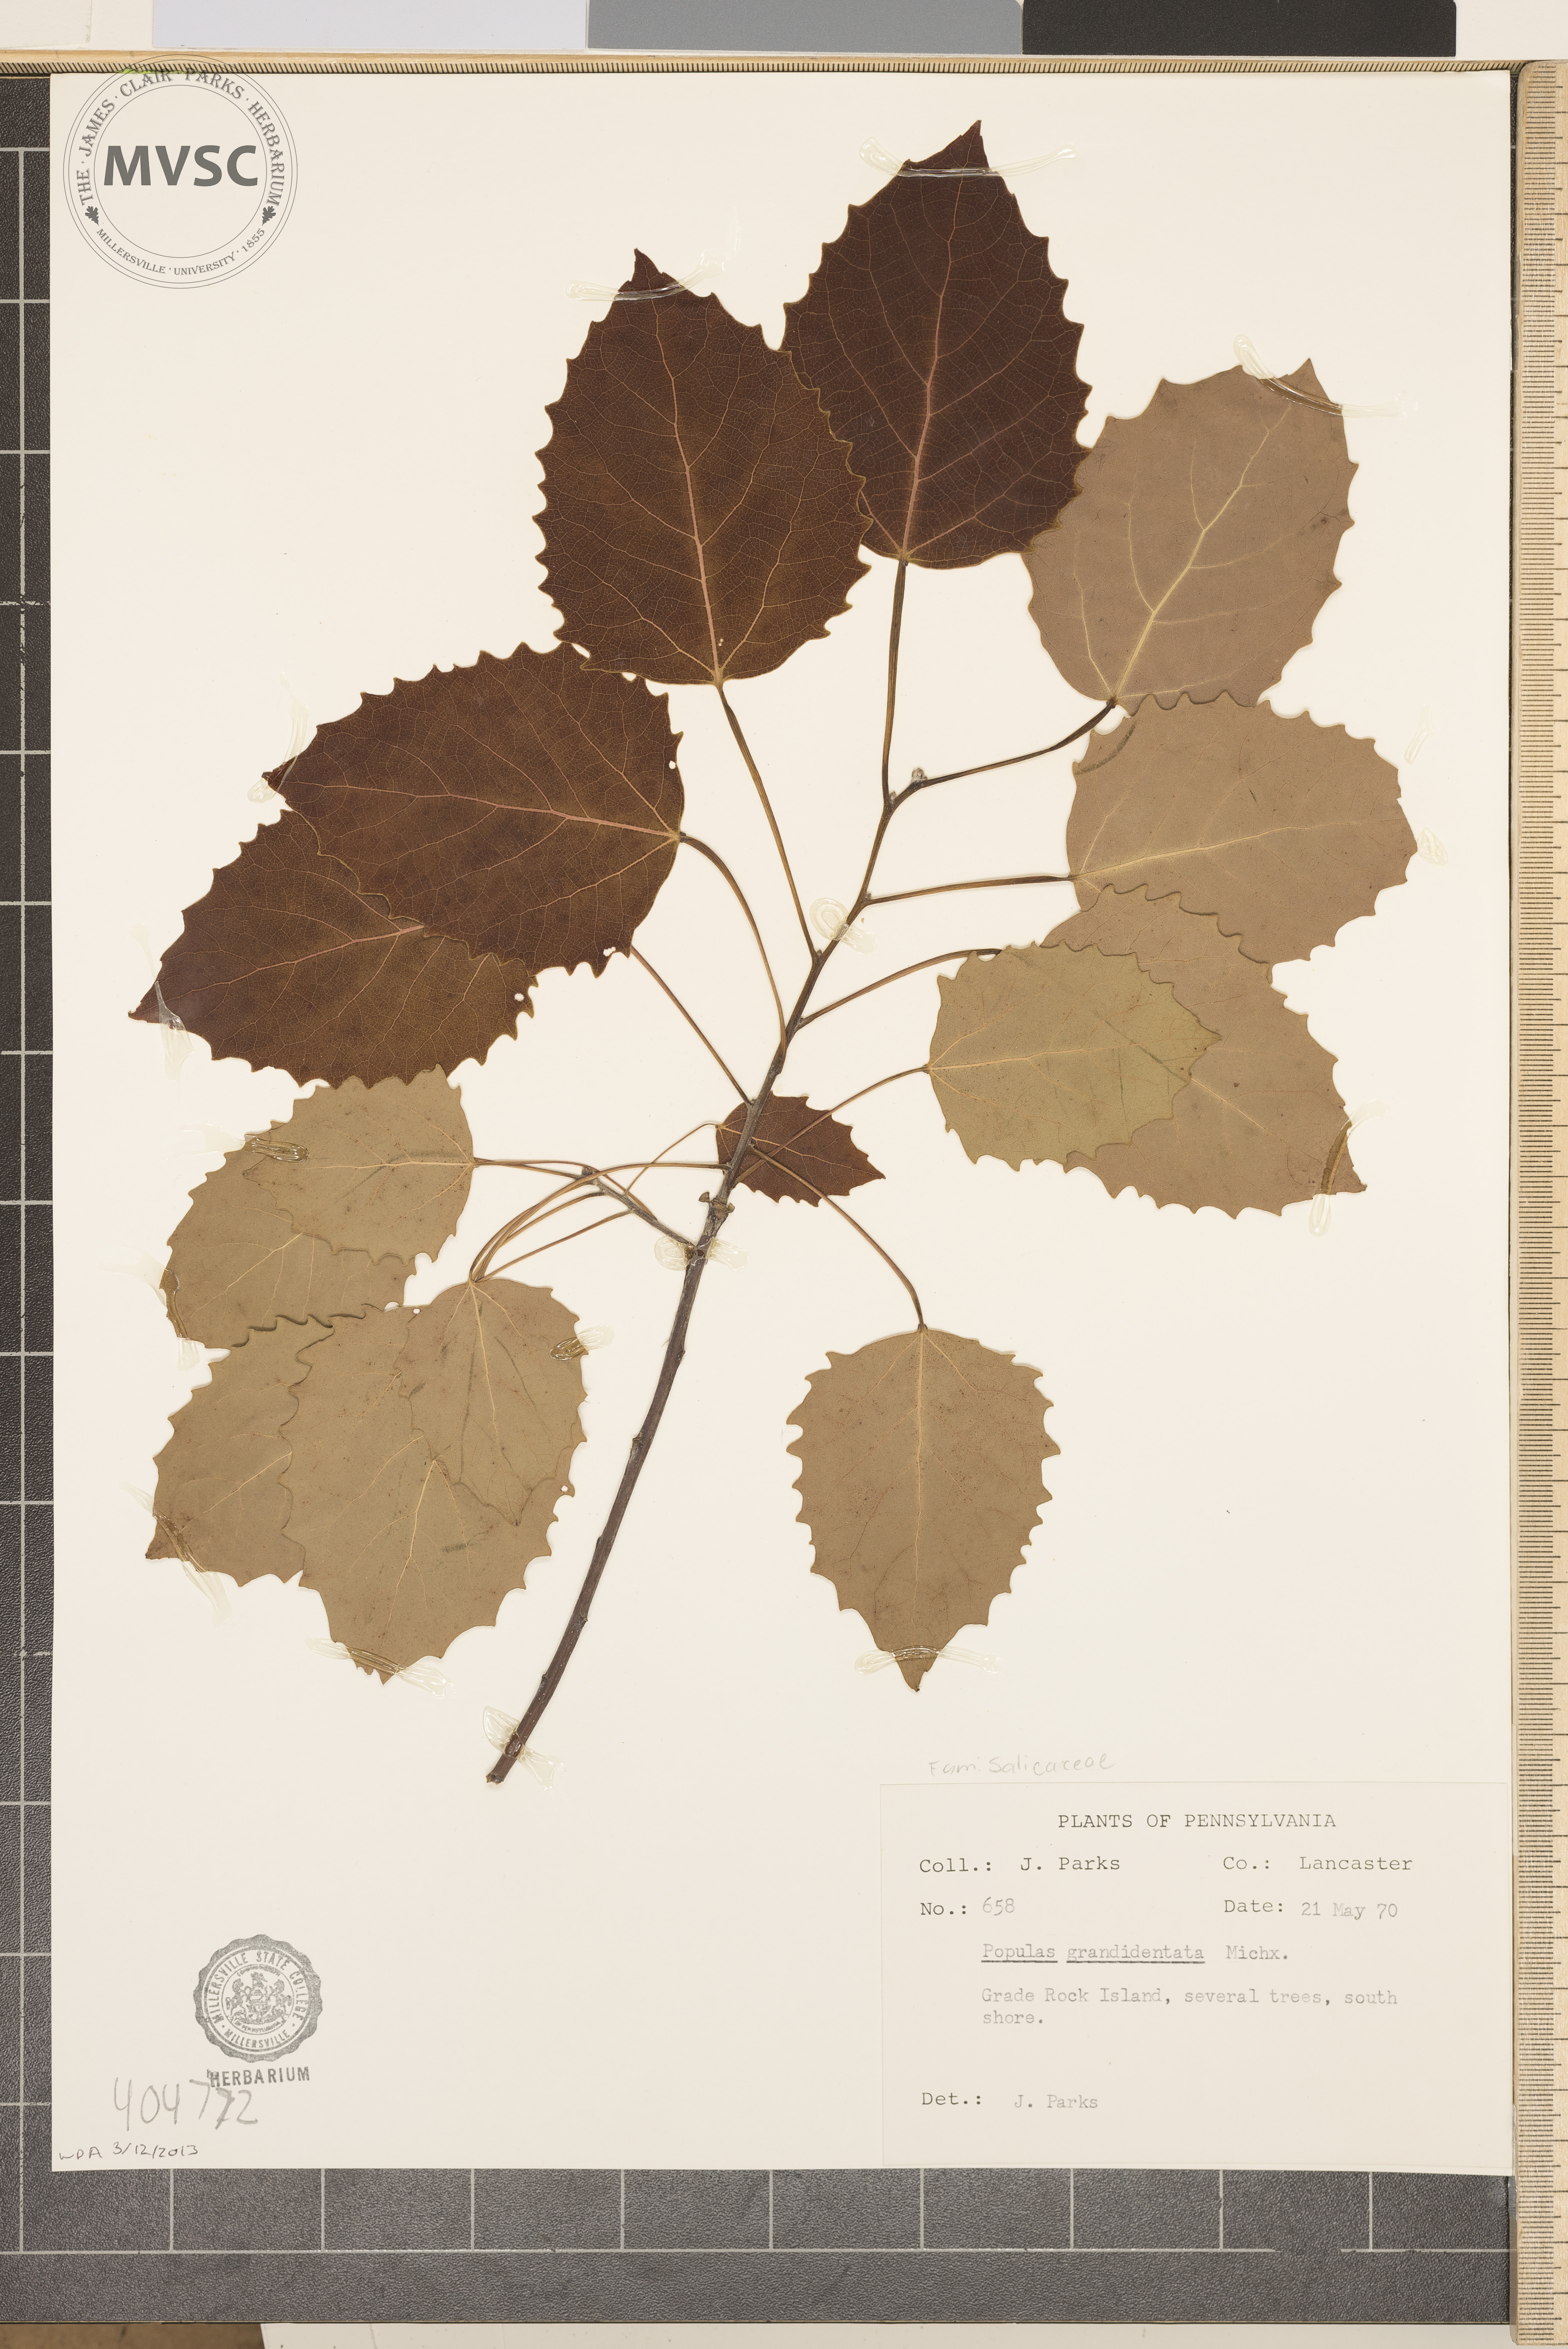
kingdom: Plantae
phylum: Tracheophyta
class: Magnoliopsida
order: Malpighiales
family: Salicaceae
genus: Populus
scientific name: Populus grandidentata
